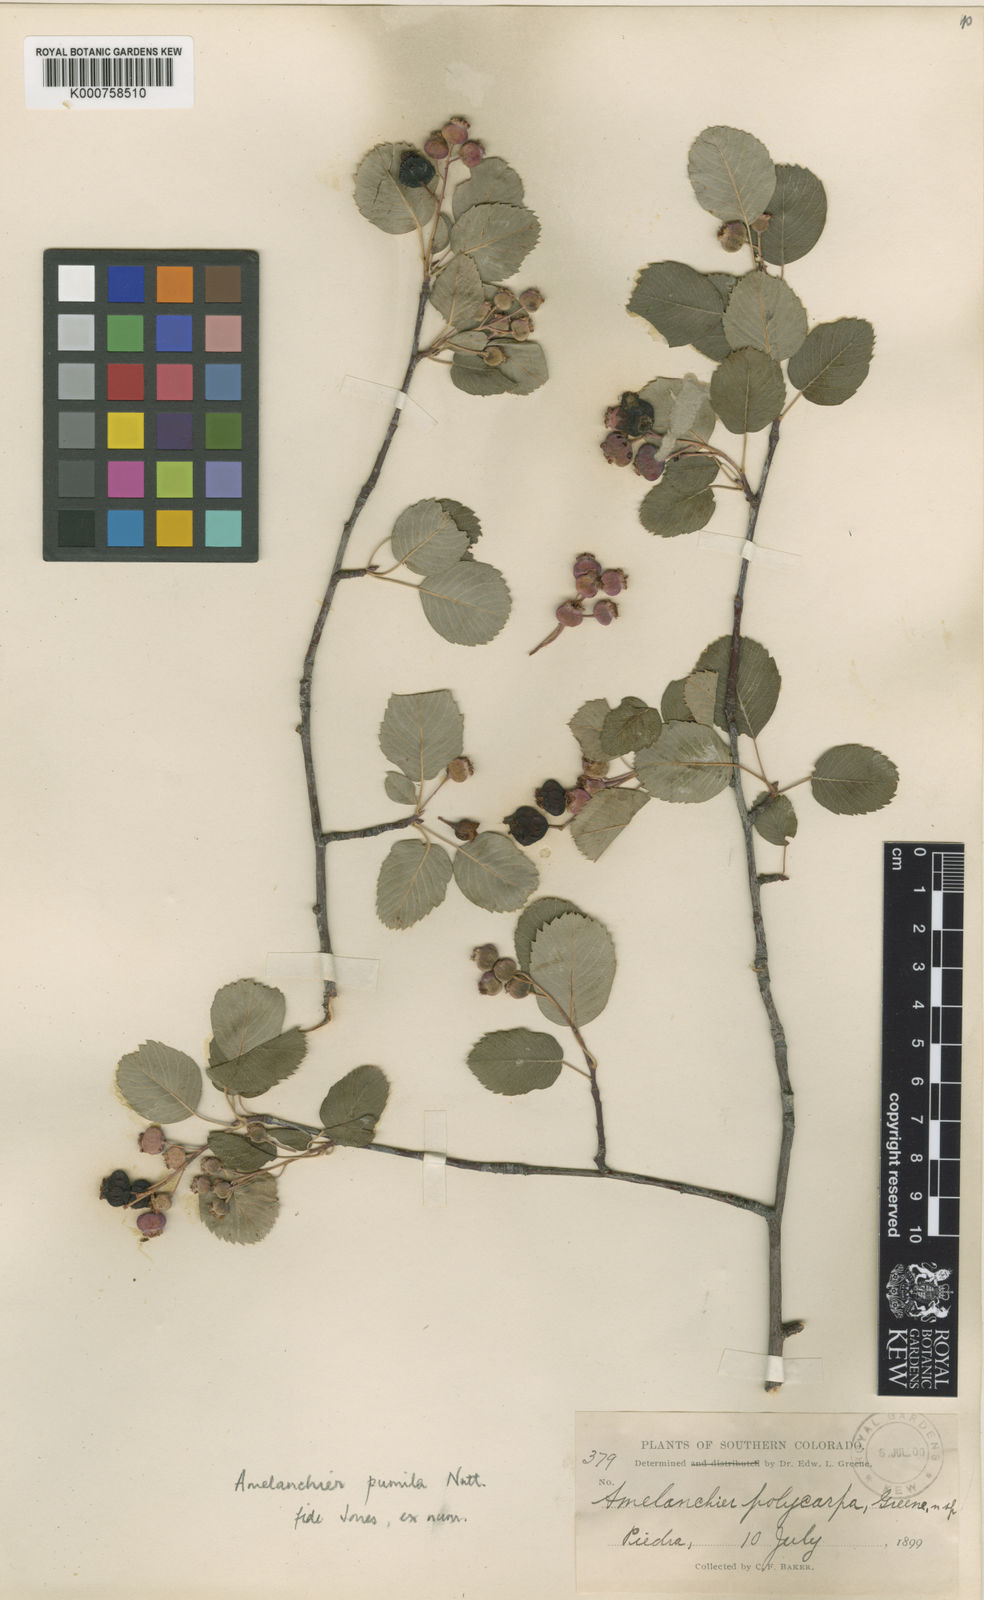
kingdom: Plantae
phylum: Tracheophyta
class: Magnoliopsida
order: Rosales
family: Rosaceae
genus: Amelanchier
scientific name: Amelanchier pumila
